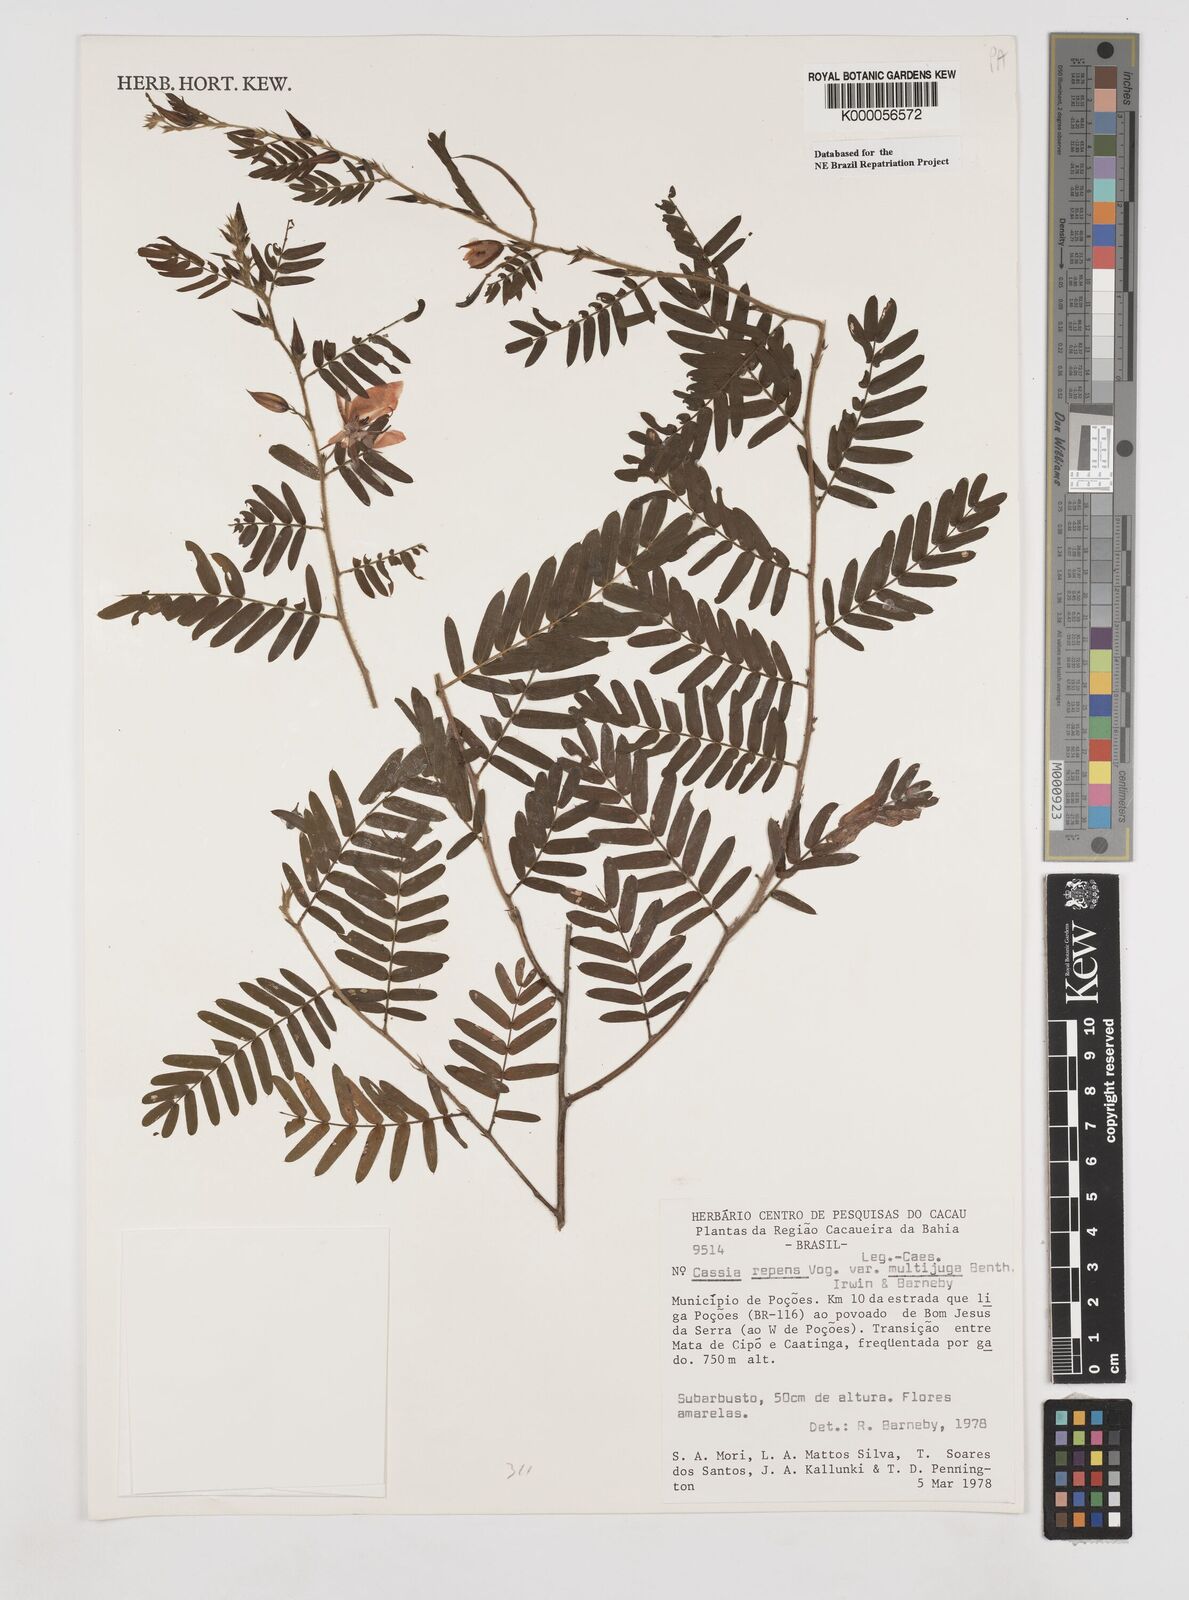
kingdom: Plantae
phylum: Tracheophyta
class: Magnoliopsida
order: Fabales
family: Fabaceae
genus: Chamaecrista
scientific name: Chamaecrista repens
